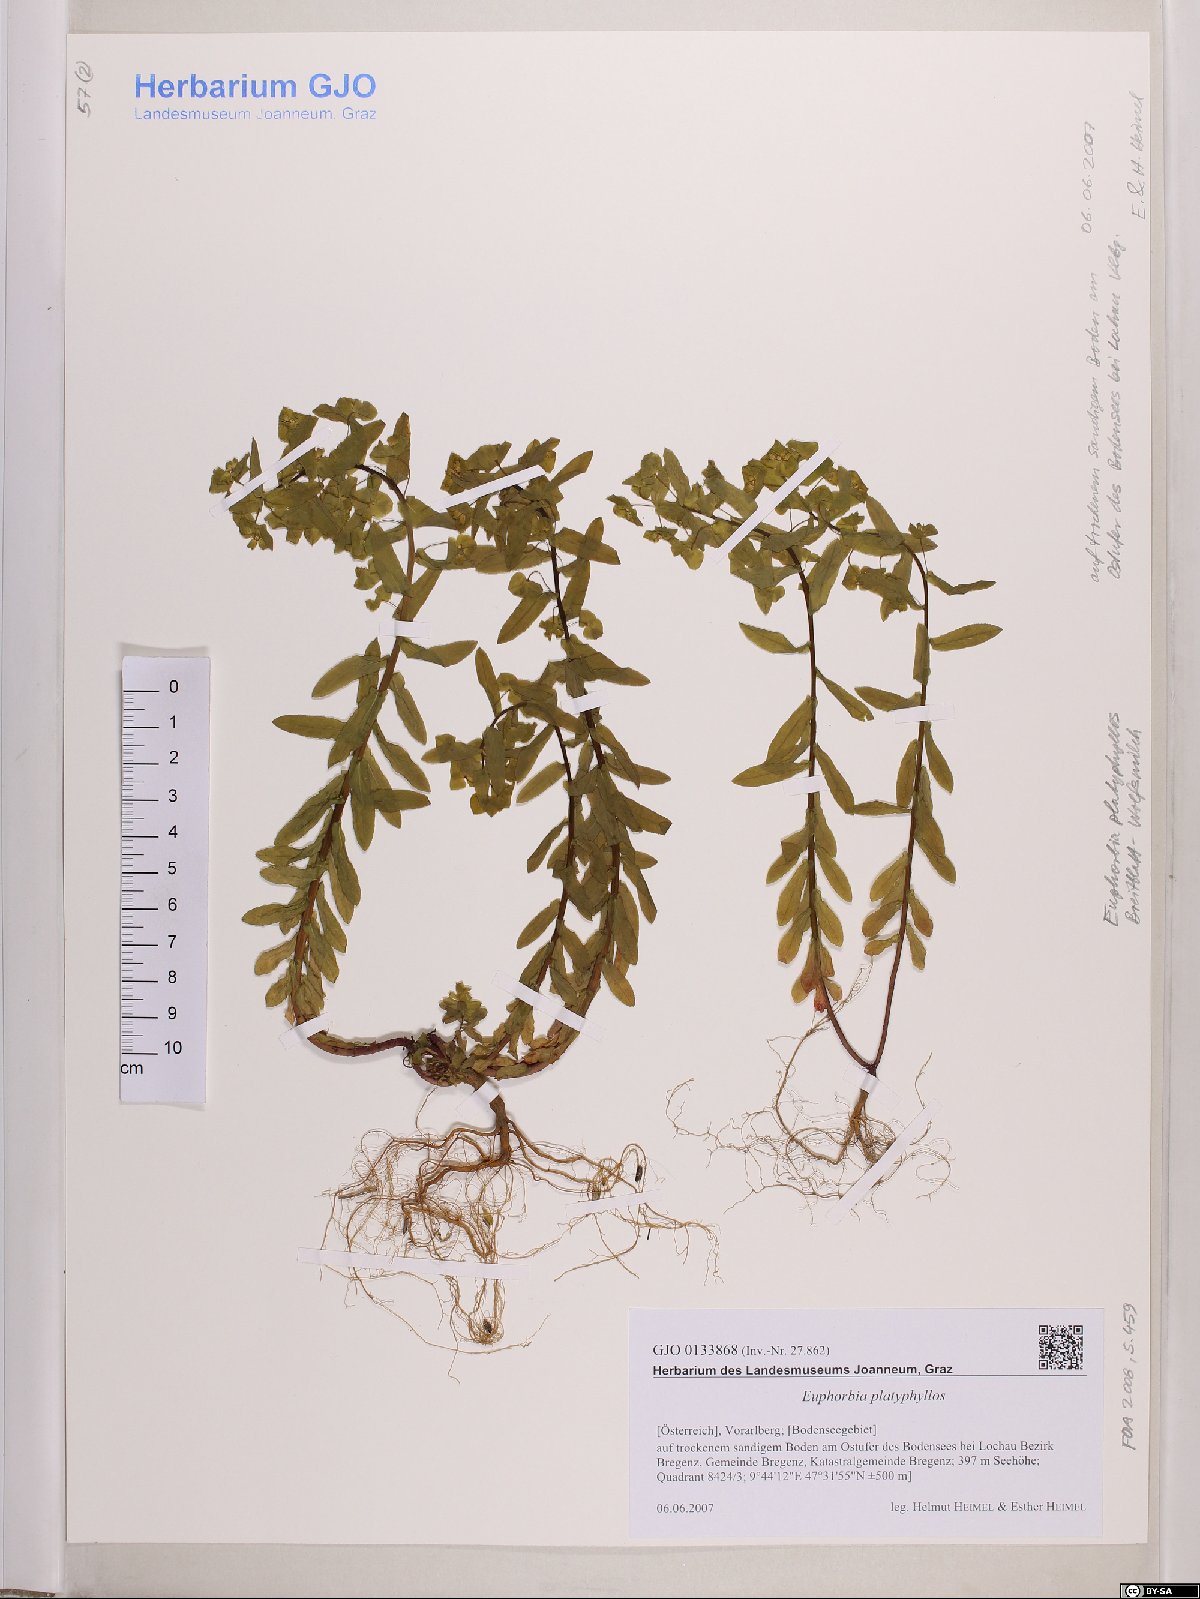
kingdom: Plantae
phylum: Tracheophyta
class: Magnoliopsida
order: Malpighiales
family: Euphorbiaceae
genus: Euphorbia
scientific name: Euphorbia platyphyllos
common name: Broad-leaved spurge
